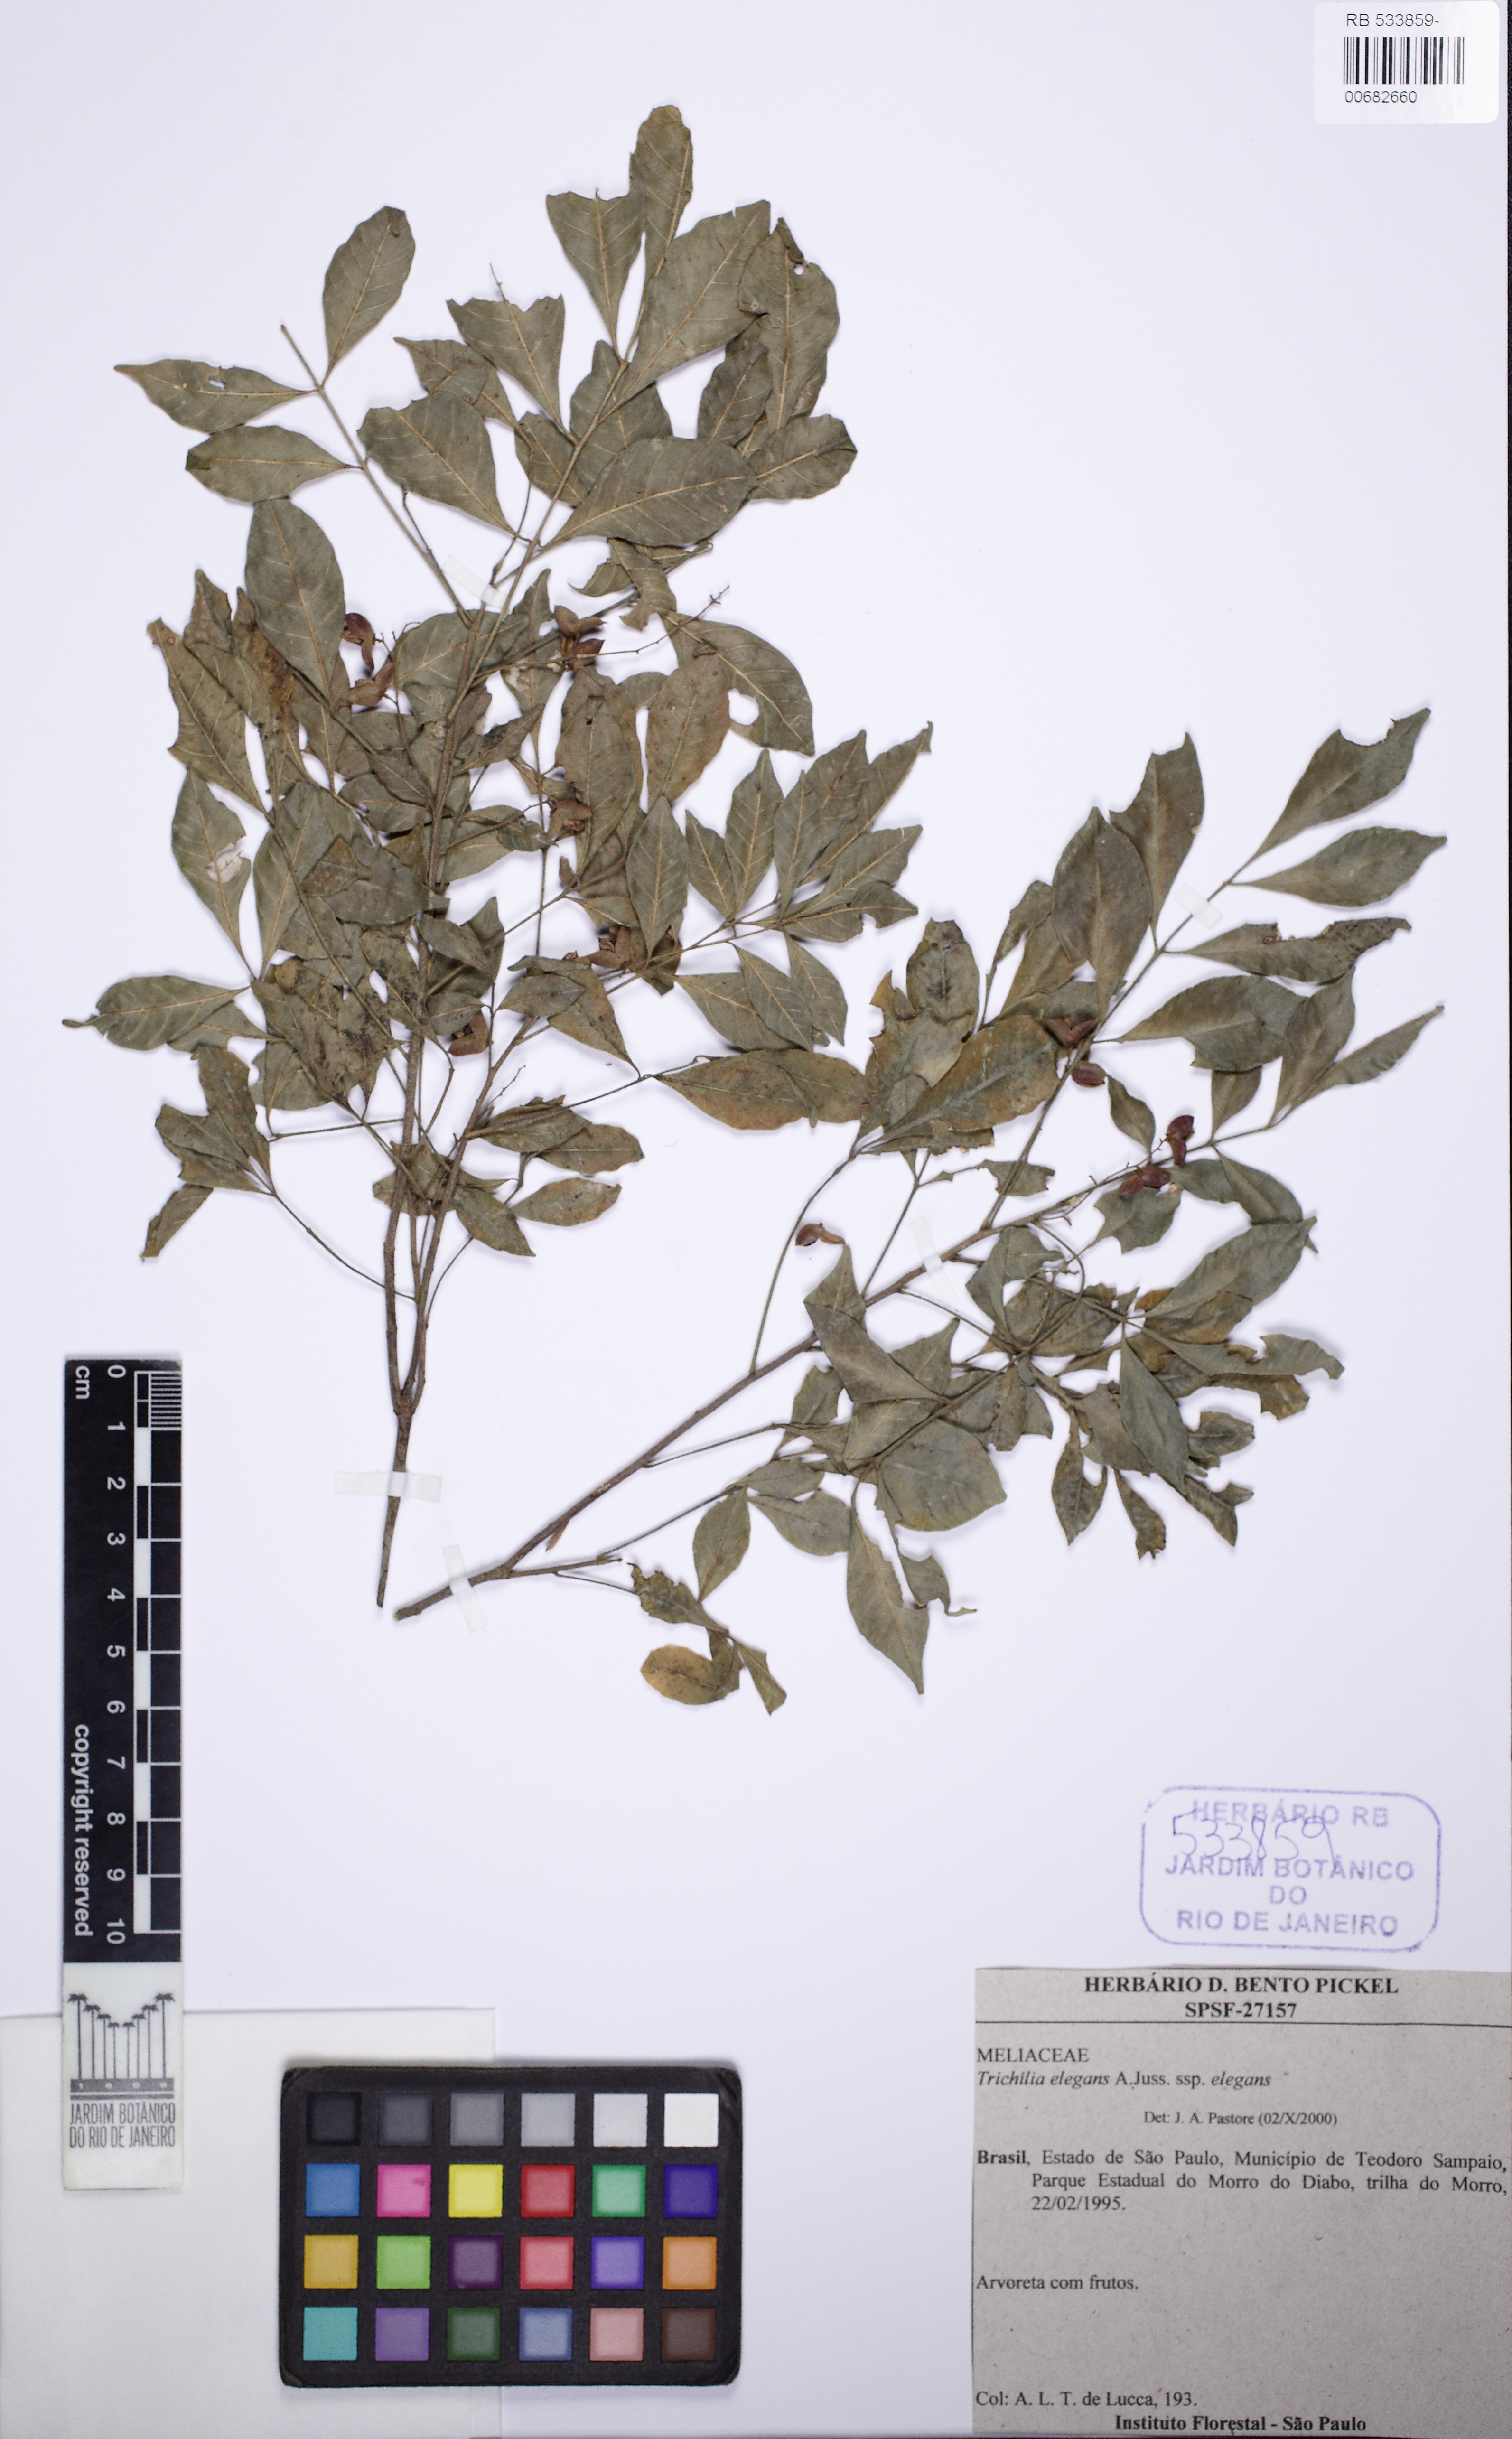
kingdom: Plantae
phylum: Tracheophyta
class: Magnoliopsida
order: Sapindales
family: Meliaceae
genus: Trichilia
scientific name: Trichilia elegans
